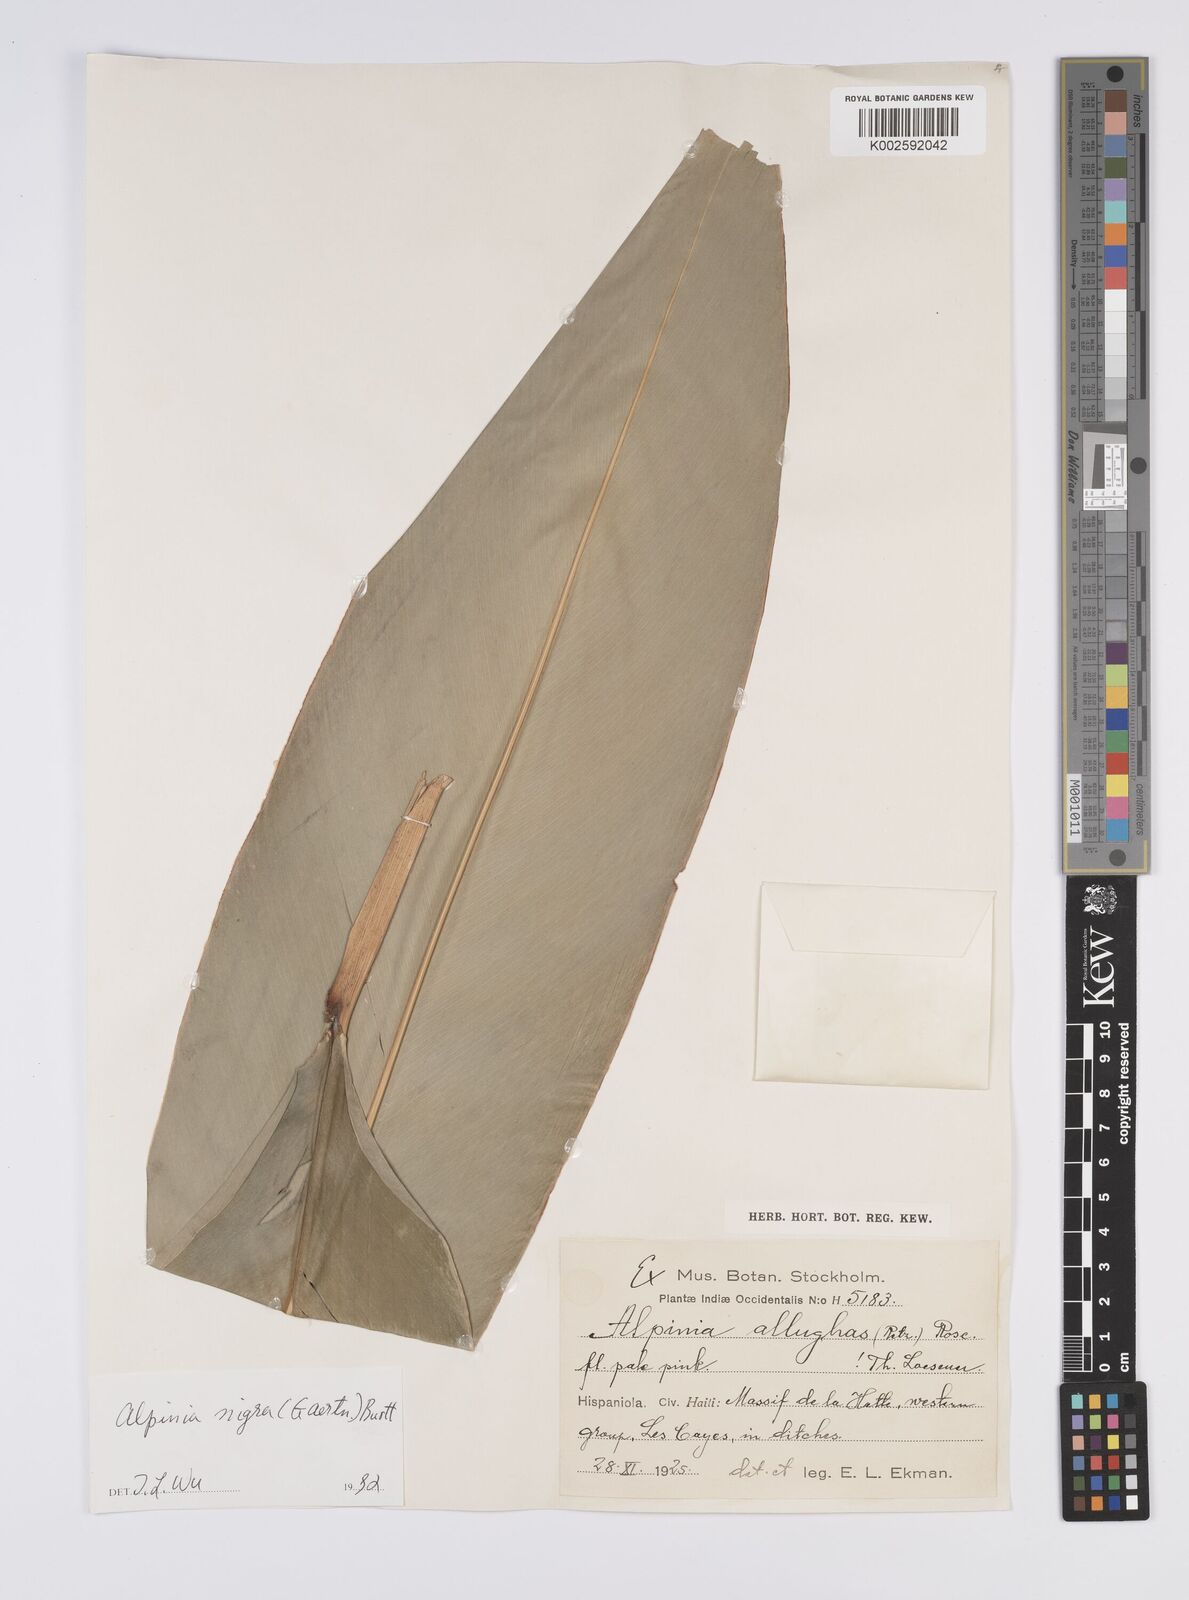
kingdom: Plantae
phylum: Tracheophyta
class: Liliopsida
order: Zingiberales
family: Zingiberaceae
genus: Alpinia
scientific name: Alpinia nigra
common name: Black fruited galanga
